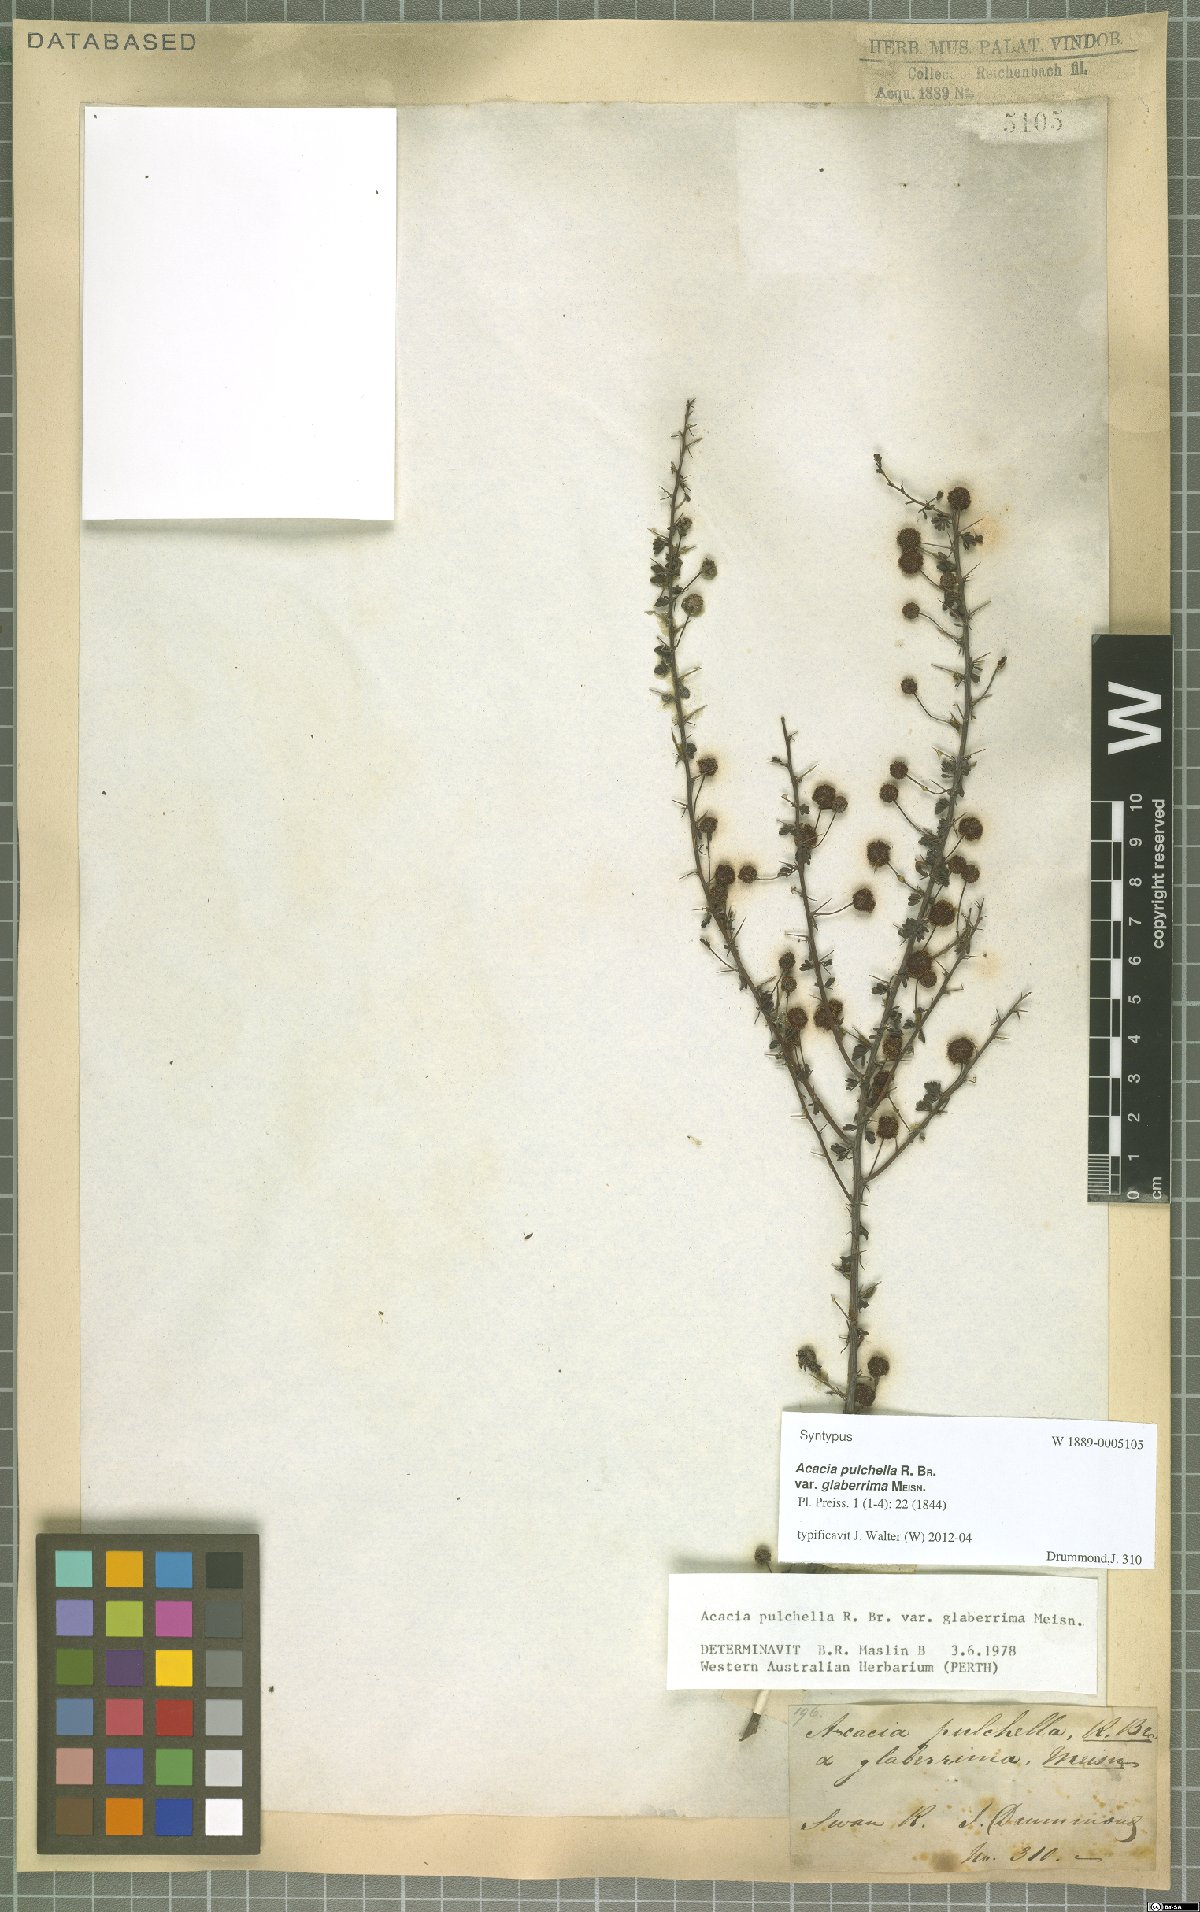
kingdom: Plantae
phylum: Tracheophyta
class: Magnoliopsida
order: Fabales
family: Fabaceae
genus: Acacia
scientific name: Acacia pulchella
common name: Prickly moses
